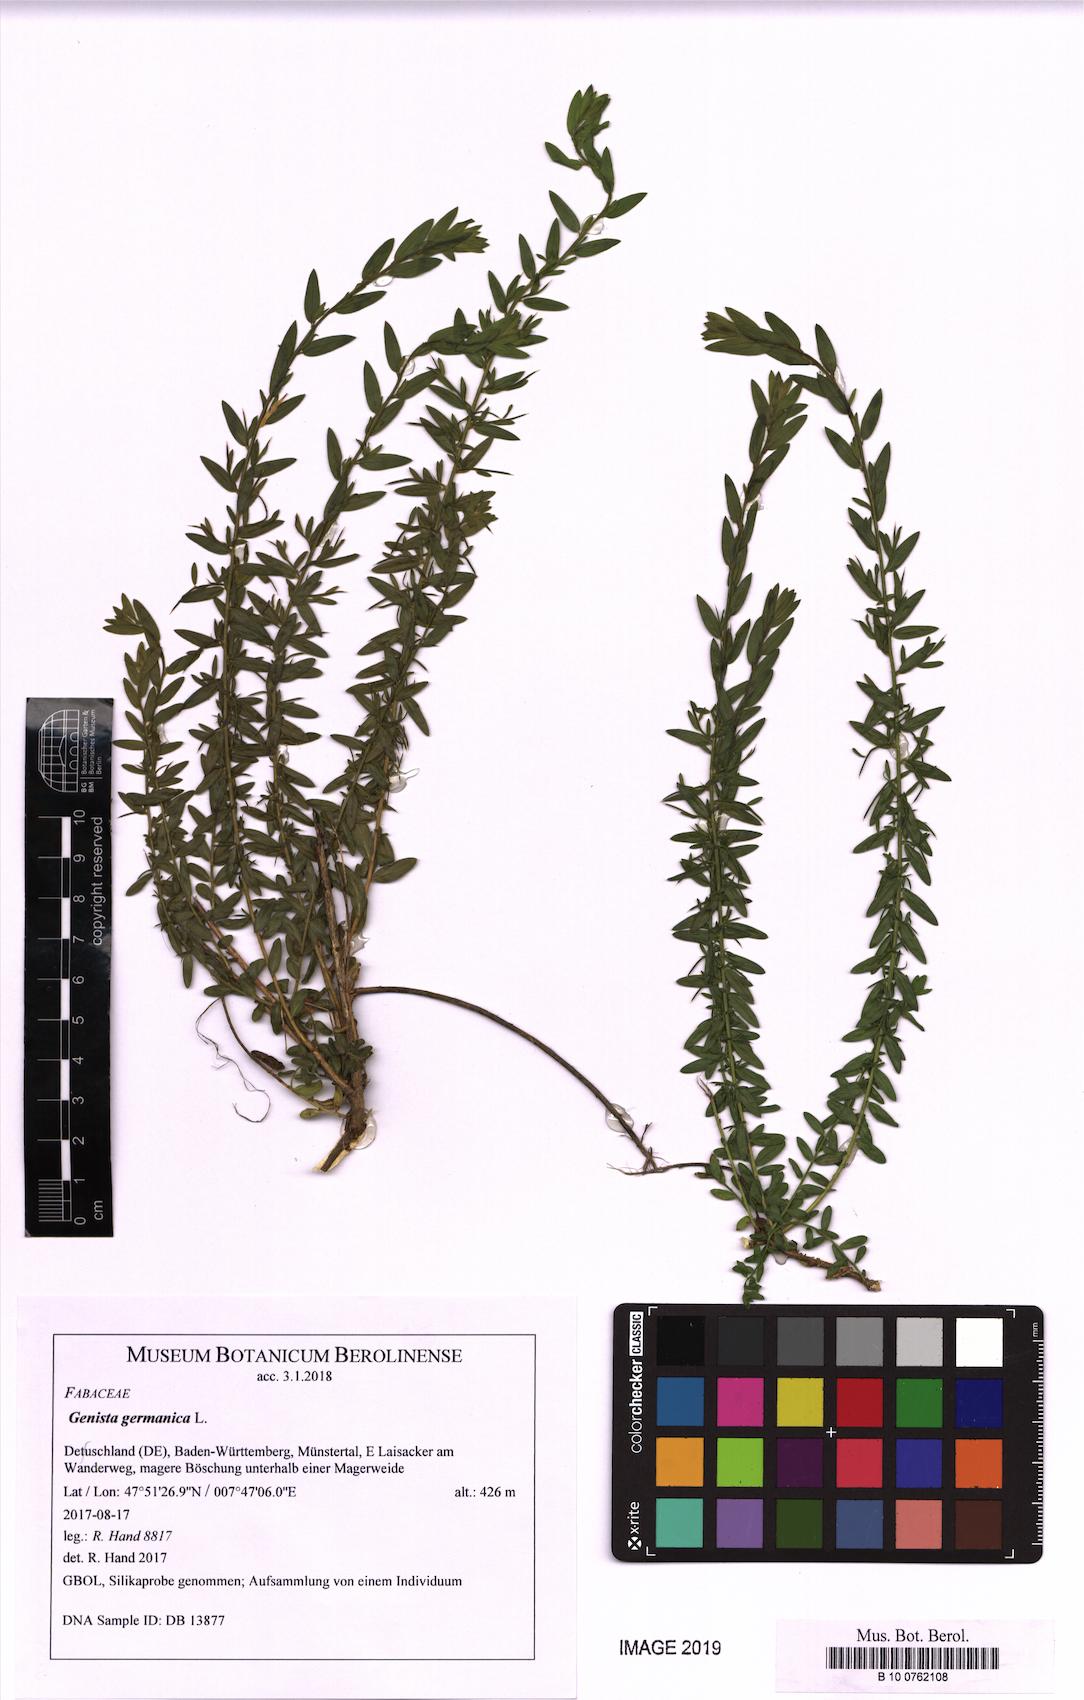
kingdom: Plantae
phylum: Tracheophyta
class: Magnoliopsida
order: Fabales
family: Fabaceae
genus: Genista
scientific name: Genista germanica
